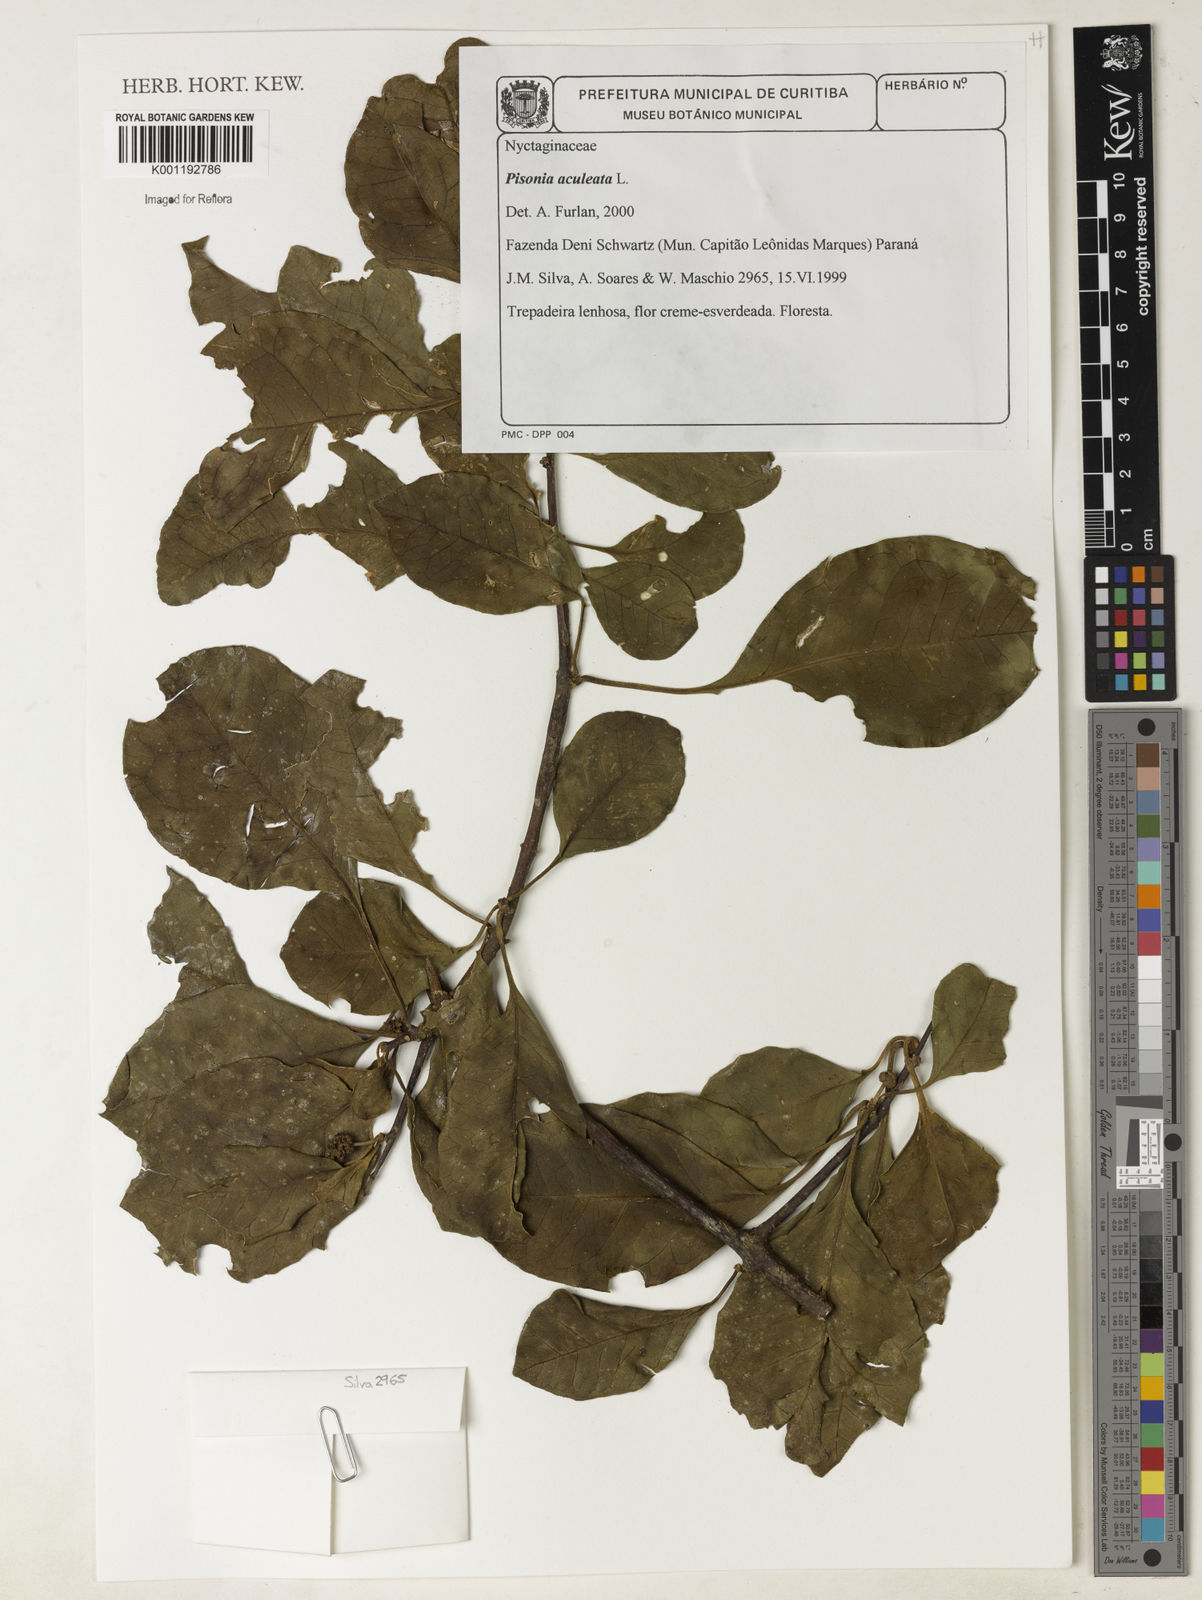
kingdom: Plantae
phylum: Tracheophyta
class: Magnoliopsida
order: Caryophyllales
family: Nyctaginaceae
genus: Pisonia
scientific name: Pisonia aculeata
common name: Cockspur vine
